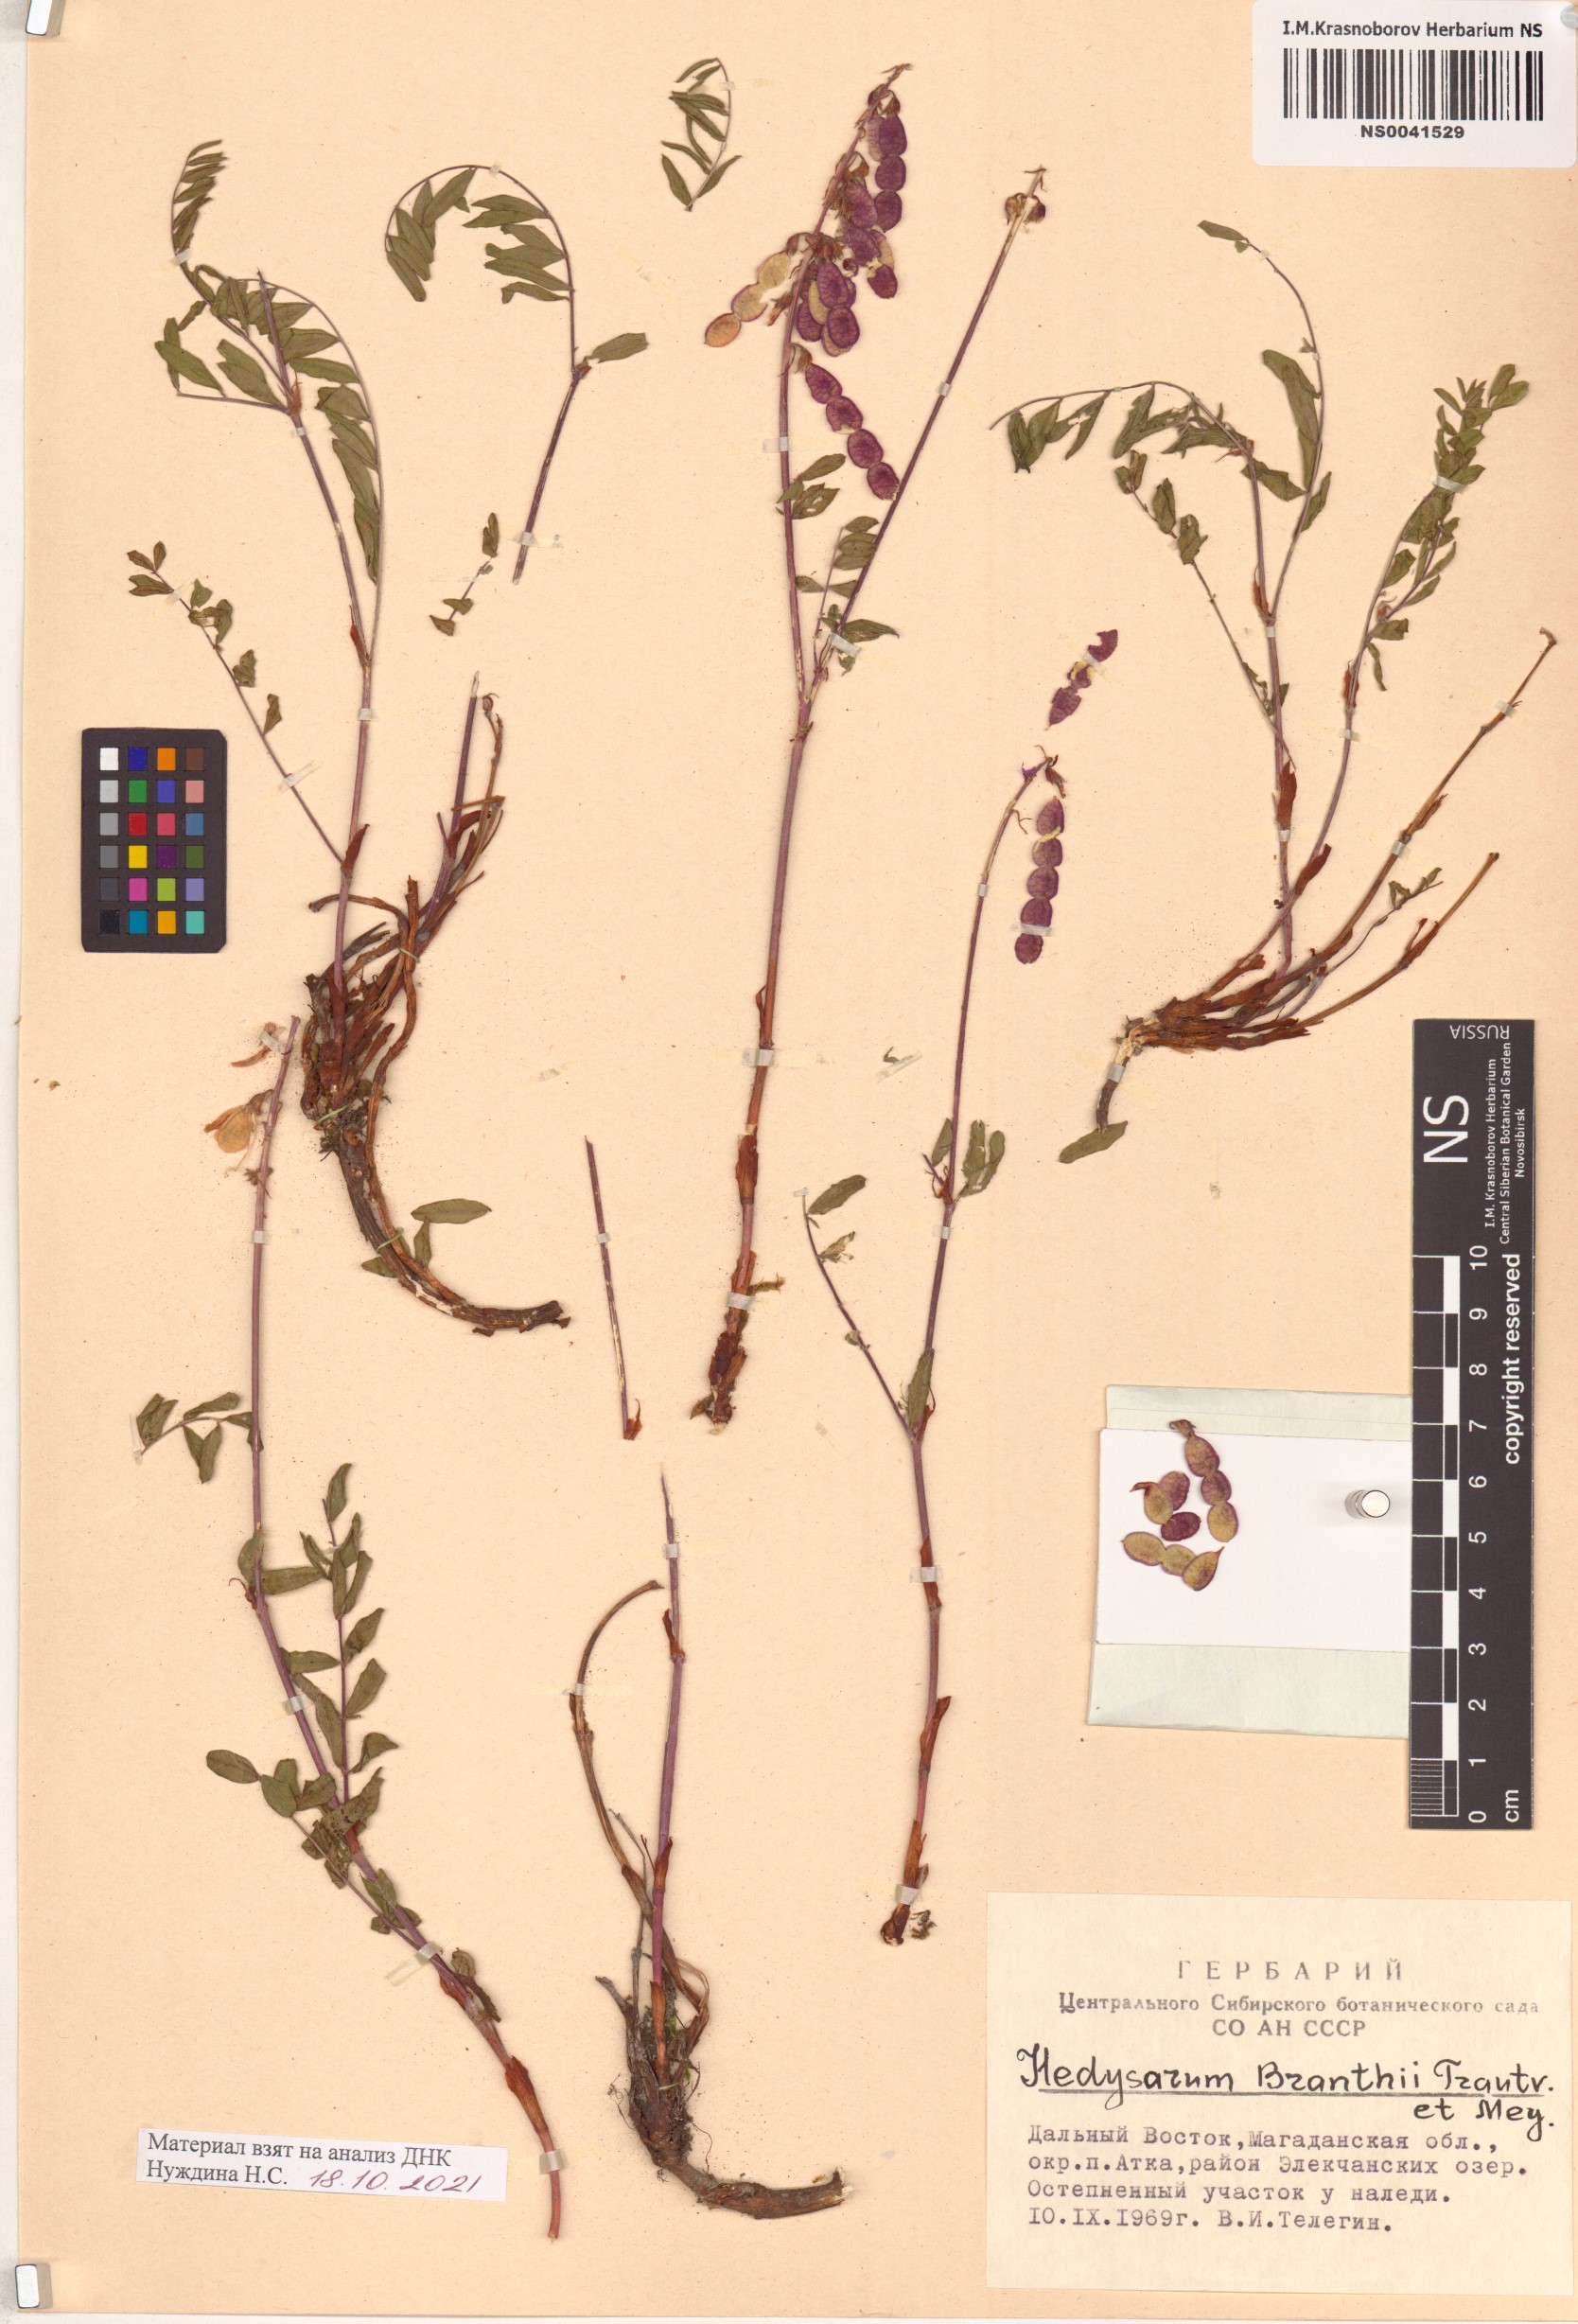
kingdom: Plantae
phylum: Tracheophyta
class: Magnoliopsida
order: Fabales
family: Fabaceae
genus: Hedysarum
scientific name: Hedysarum branthii
